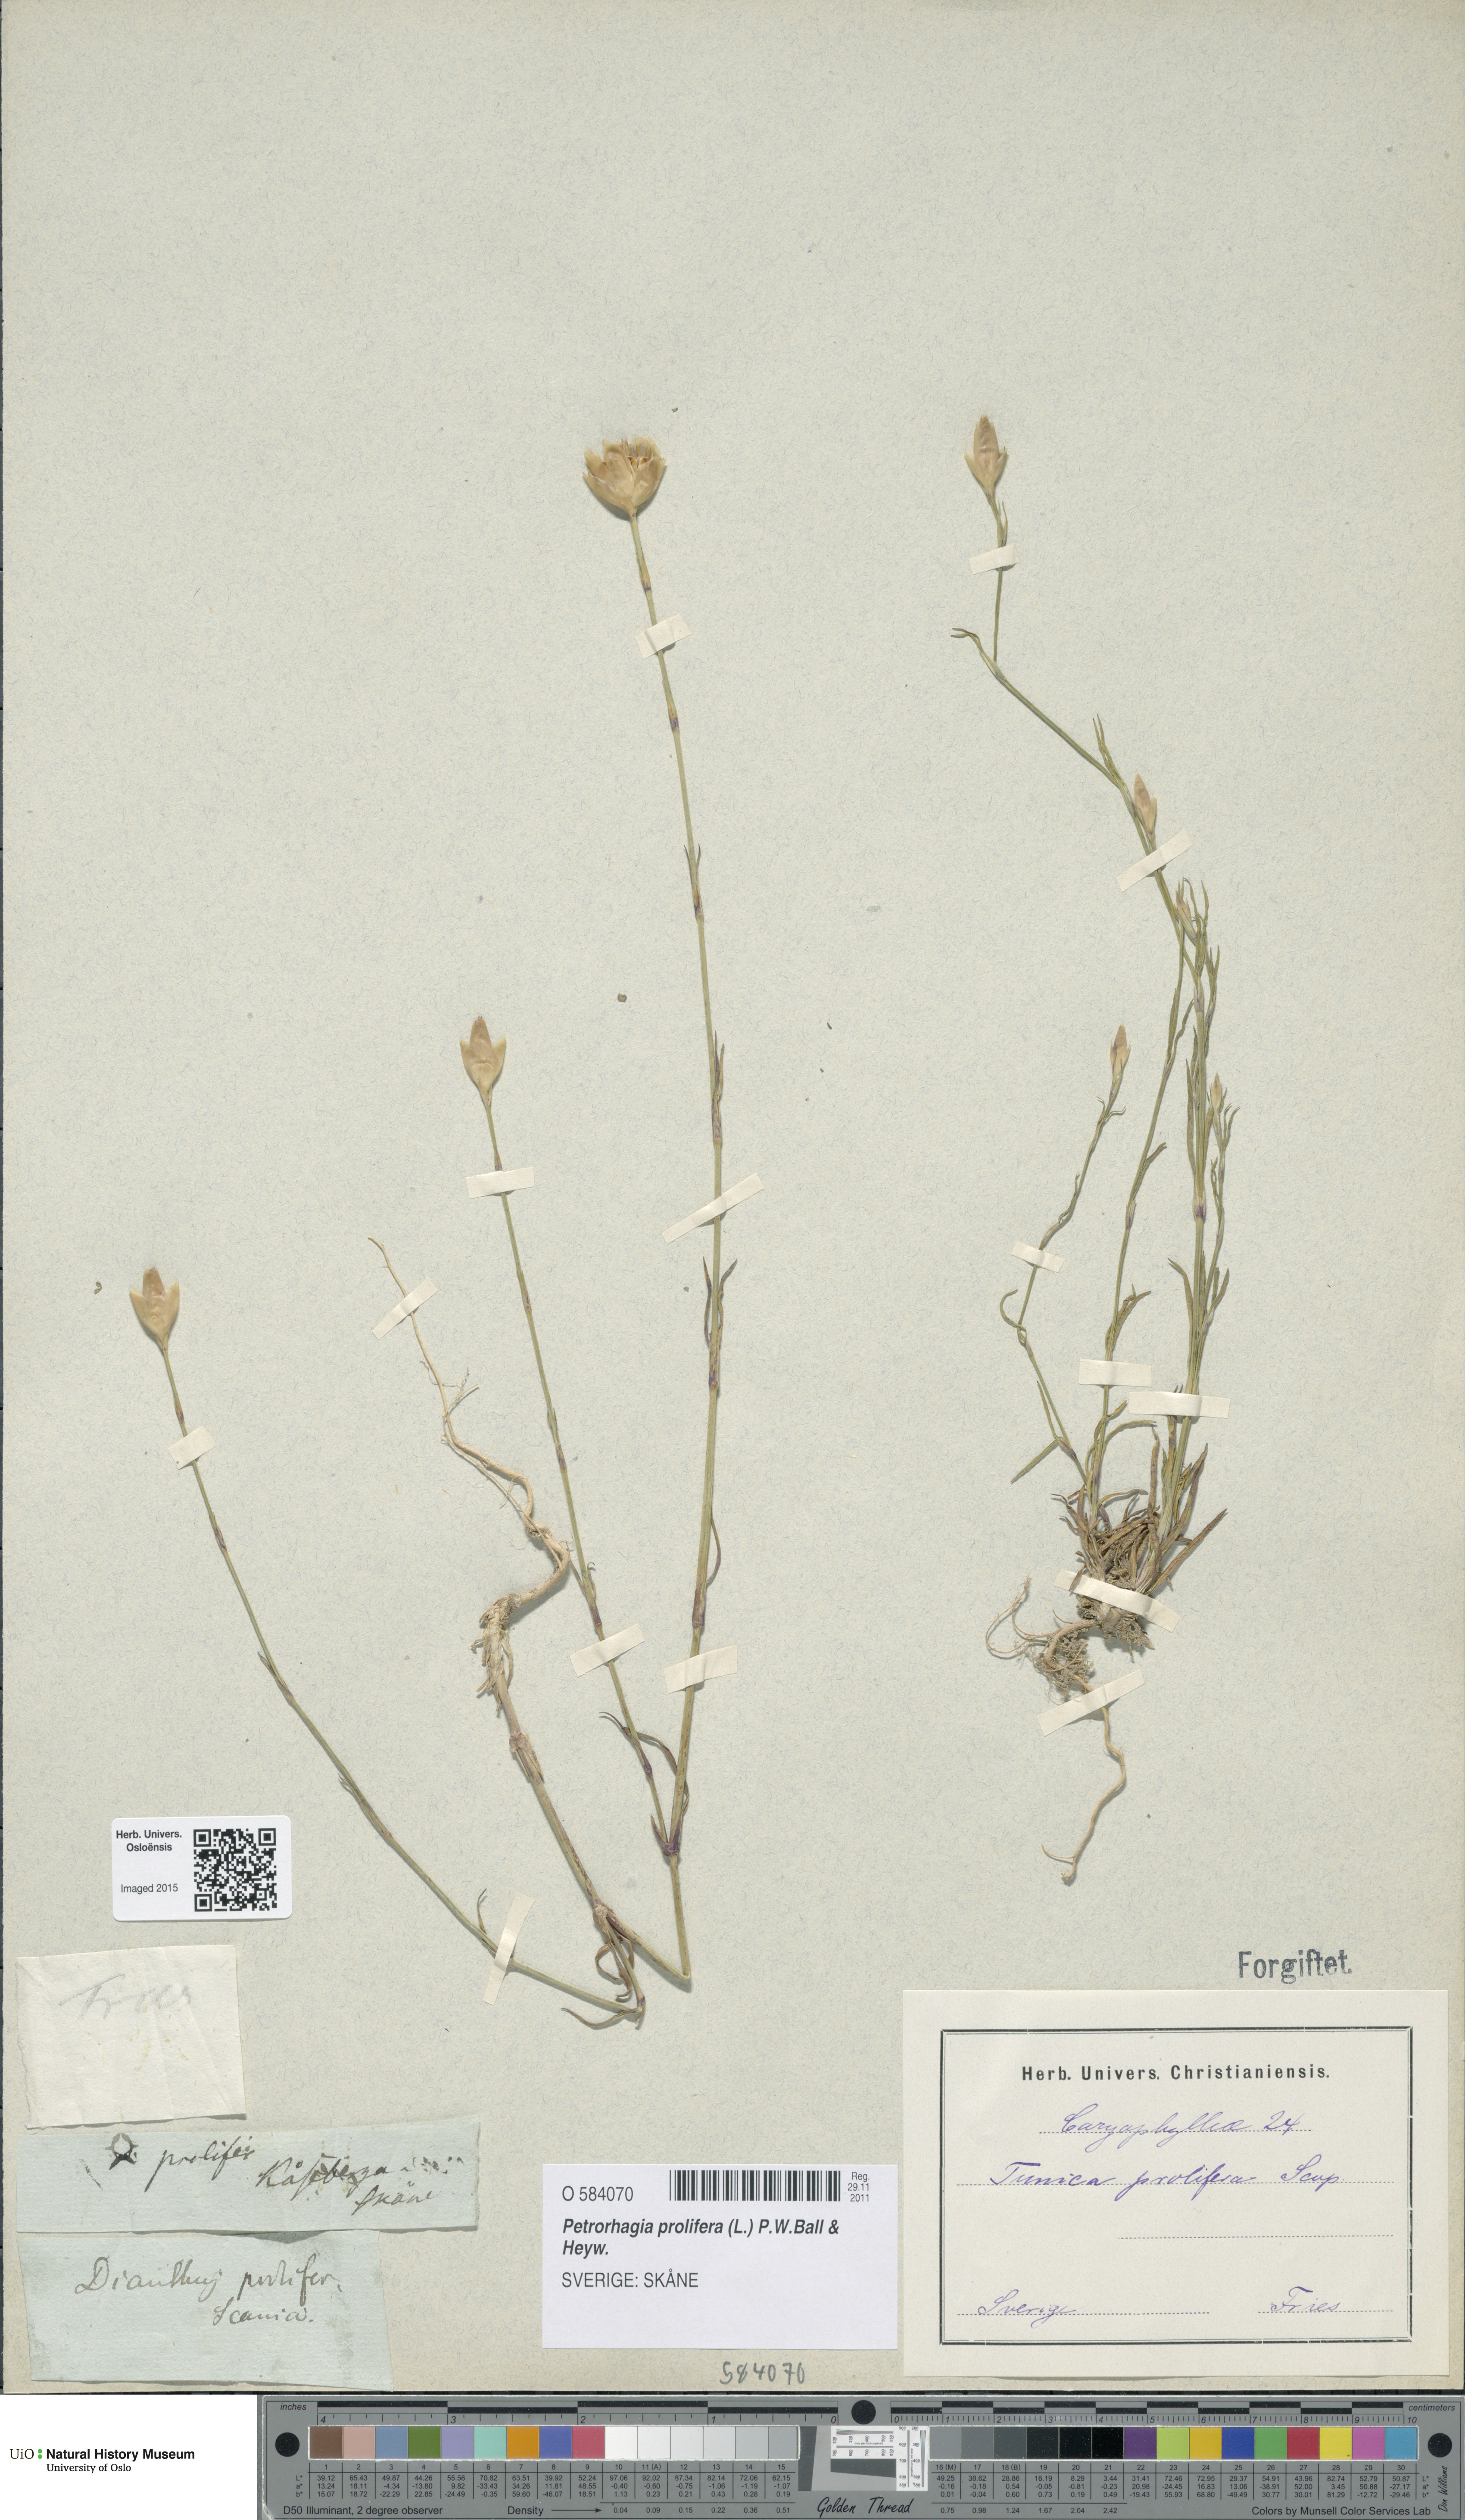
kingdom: Plantae
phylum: Tracheophyta
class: Magnoliopsida
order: Caryophyllales
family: Caryophyllaceae
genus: Petrorhagia
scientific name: Petrorhagia prolifera
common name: Proliferous pink
